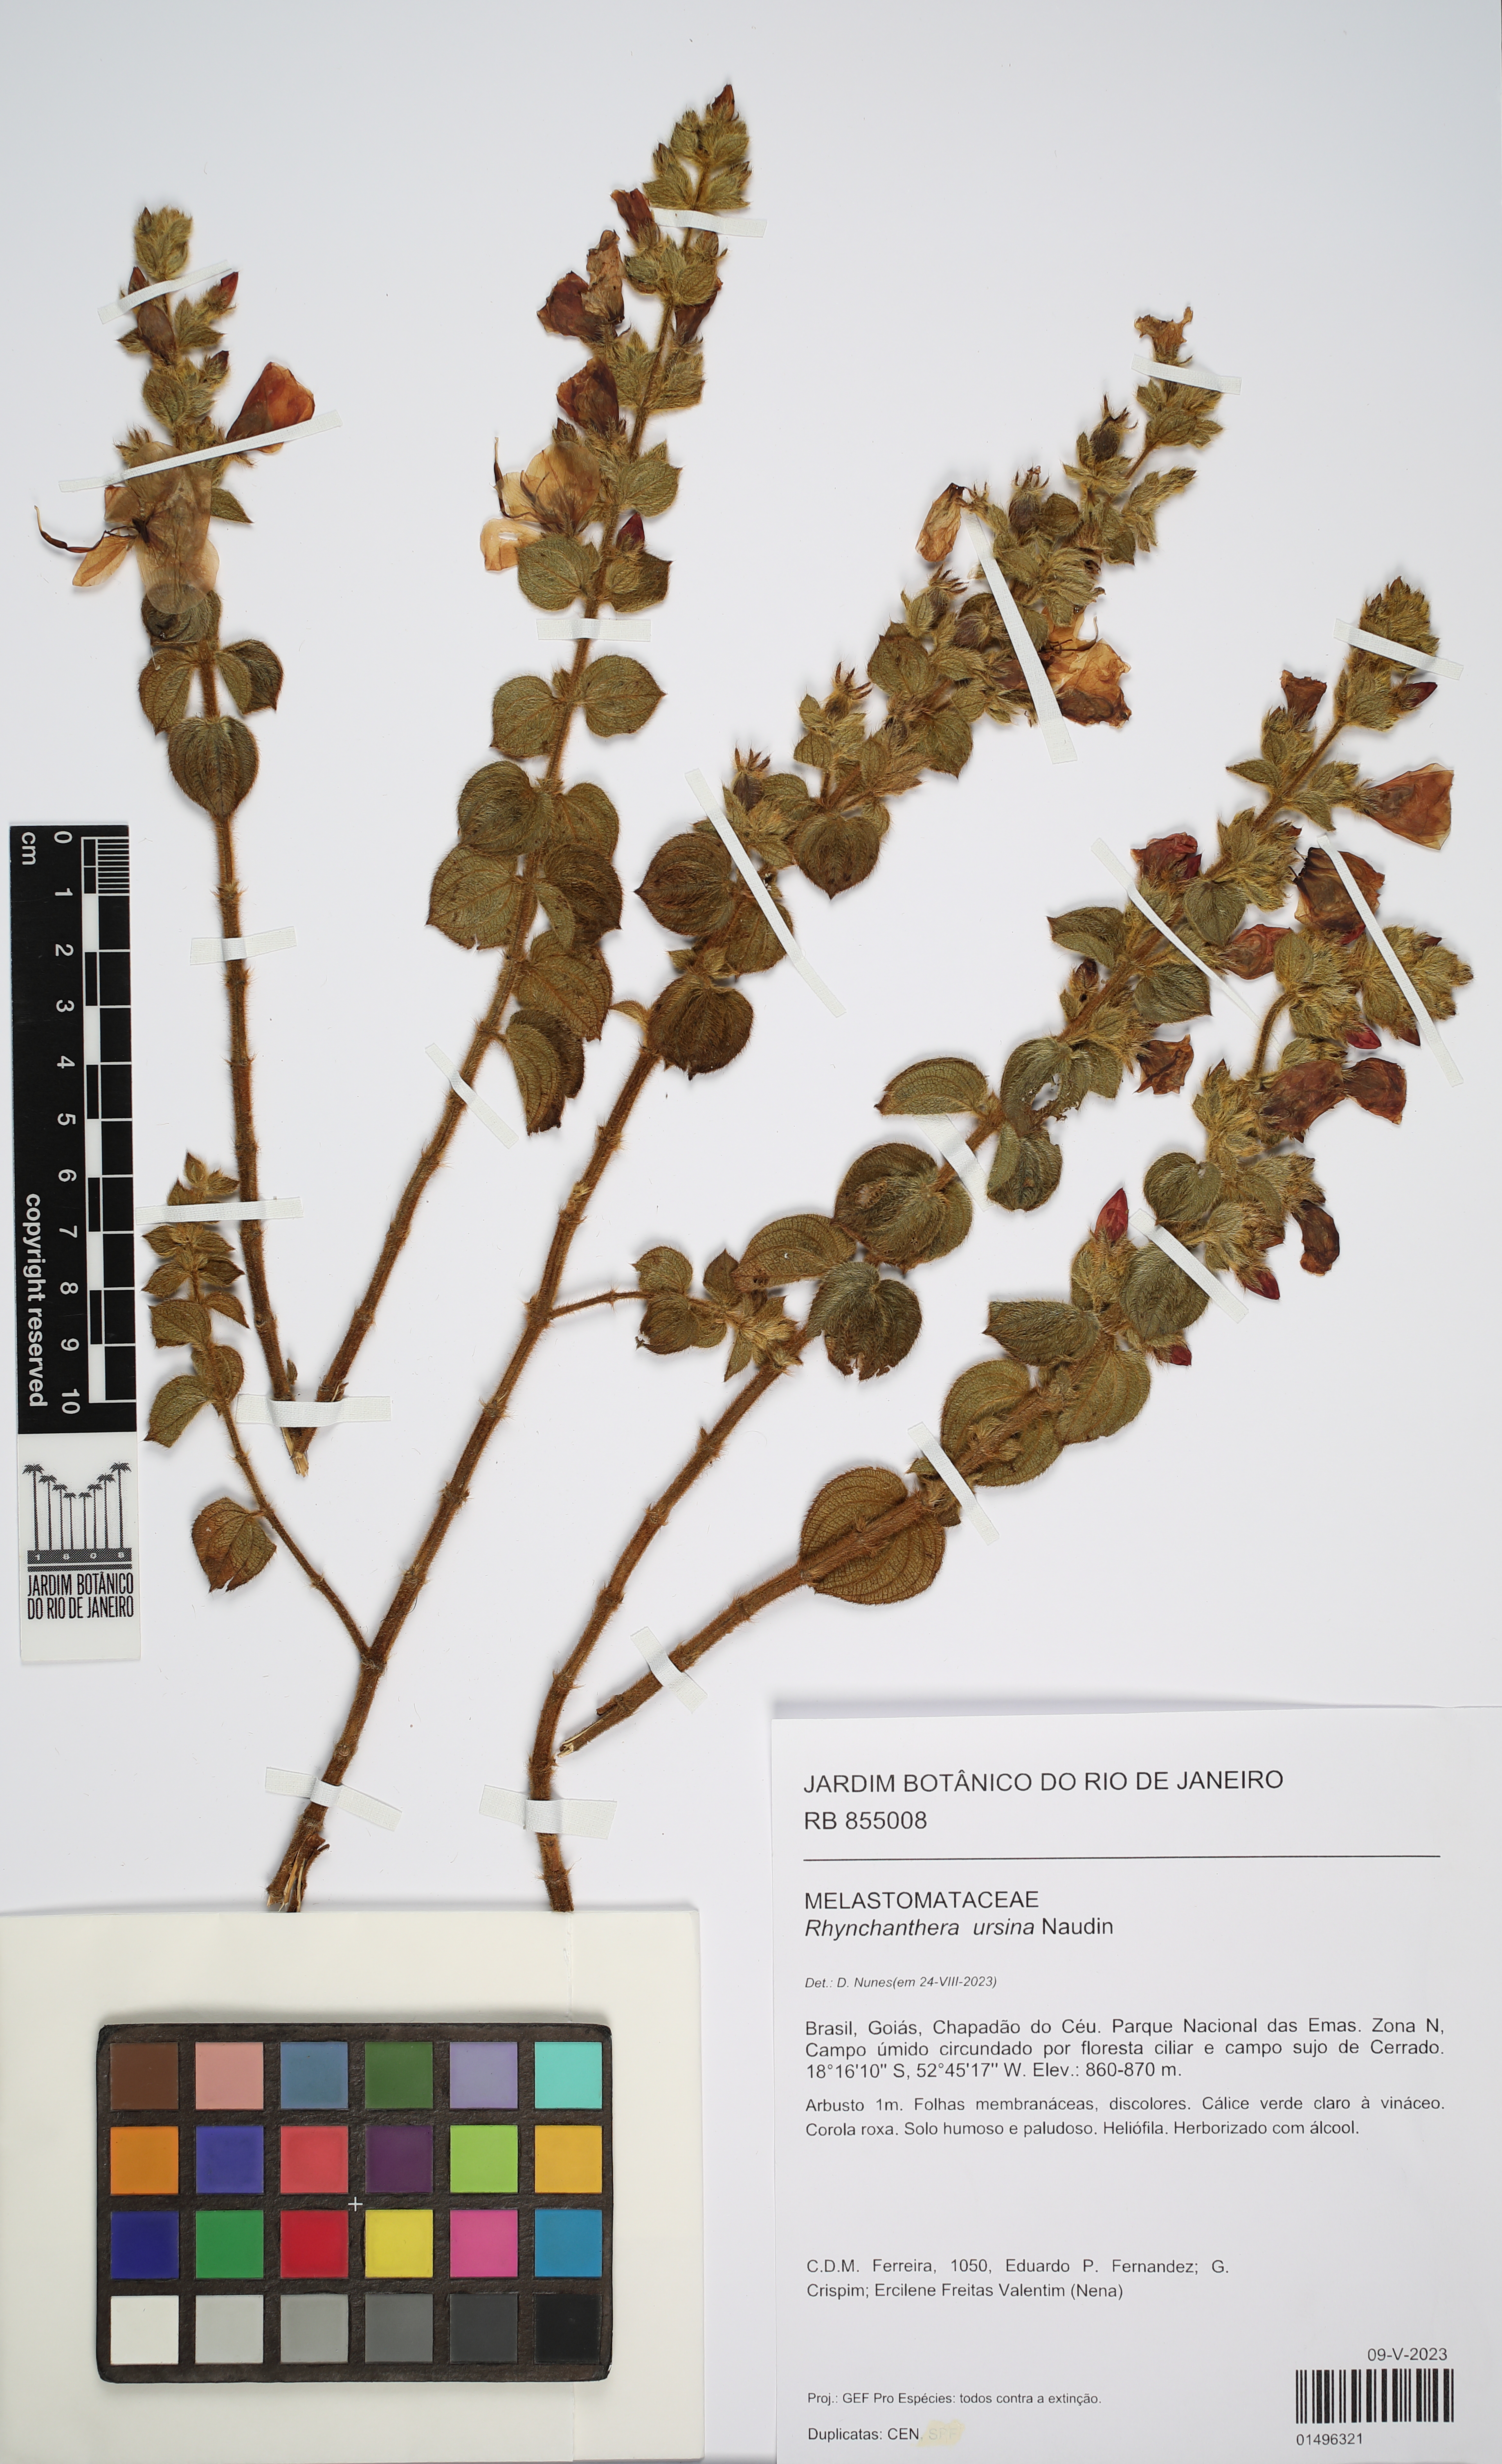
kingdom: Plantae
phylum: Tracheophyta
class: Magnoliopsida
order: Myrtales
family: Melastomataceae
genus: Rhynchanthera
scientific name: Rhynchanthera ursina
